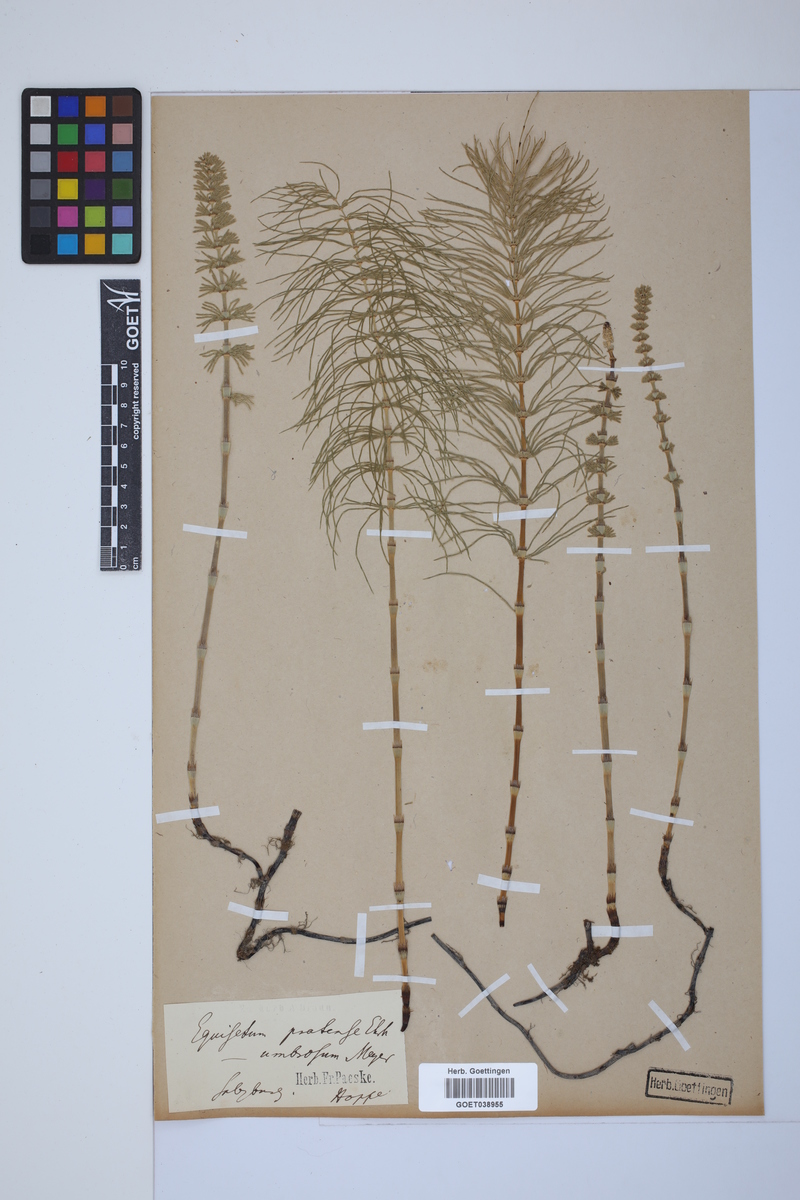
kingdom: Plantae
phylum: Tracheophyta
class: Polypodiopsida
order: Equisetales
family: Equisetaceae
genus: Equisetum
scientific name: Equisetum pratense
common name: Meadow horsetail
